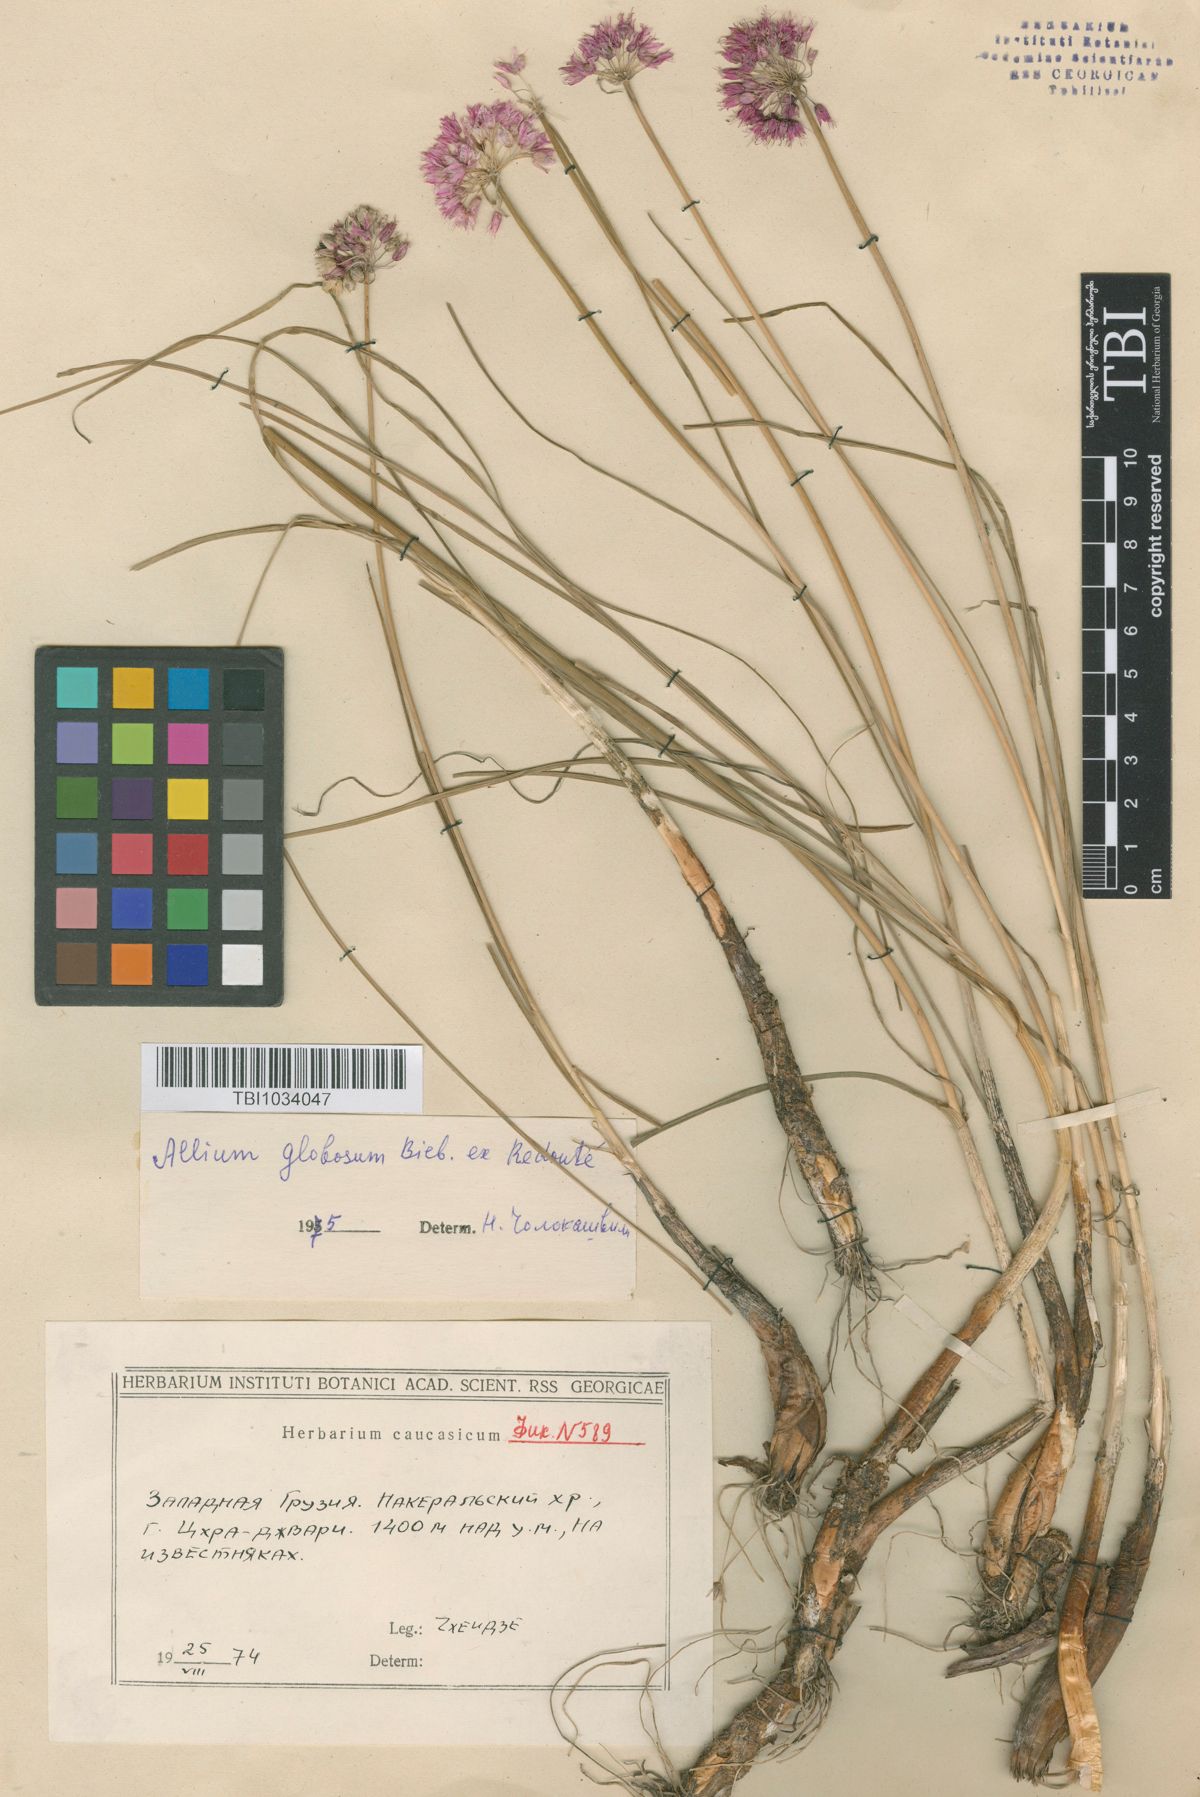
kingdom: Plantae
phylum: Tracheophyta
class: Liliopsida
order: Asparagales
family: Amaryllidaceae
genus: Allium
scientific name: Allium saxatile
